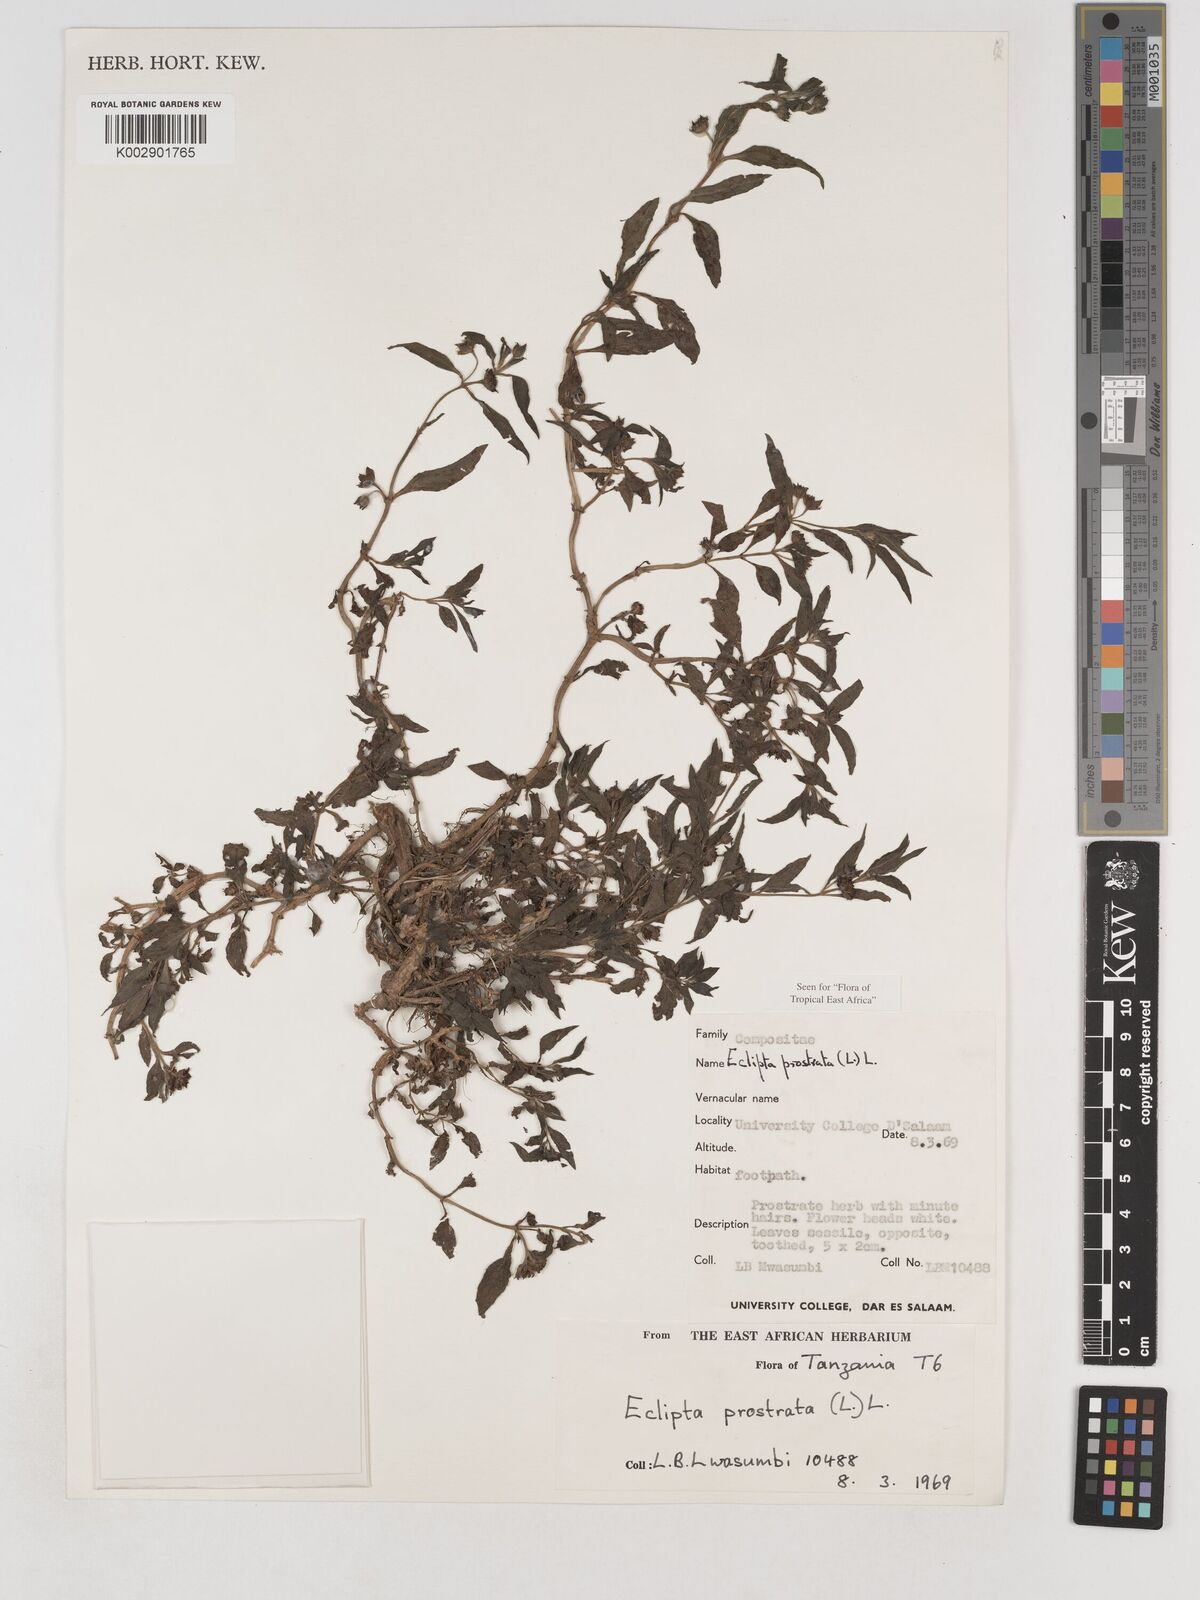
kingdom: Plantae
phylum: Tracheophyta
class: Magnoliopsida
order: Asterales
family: Asteraceae
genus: Eclipta
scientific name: Eclipta alba
